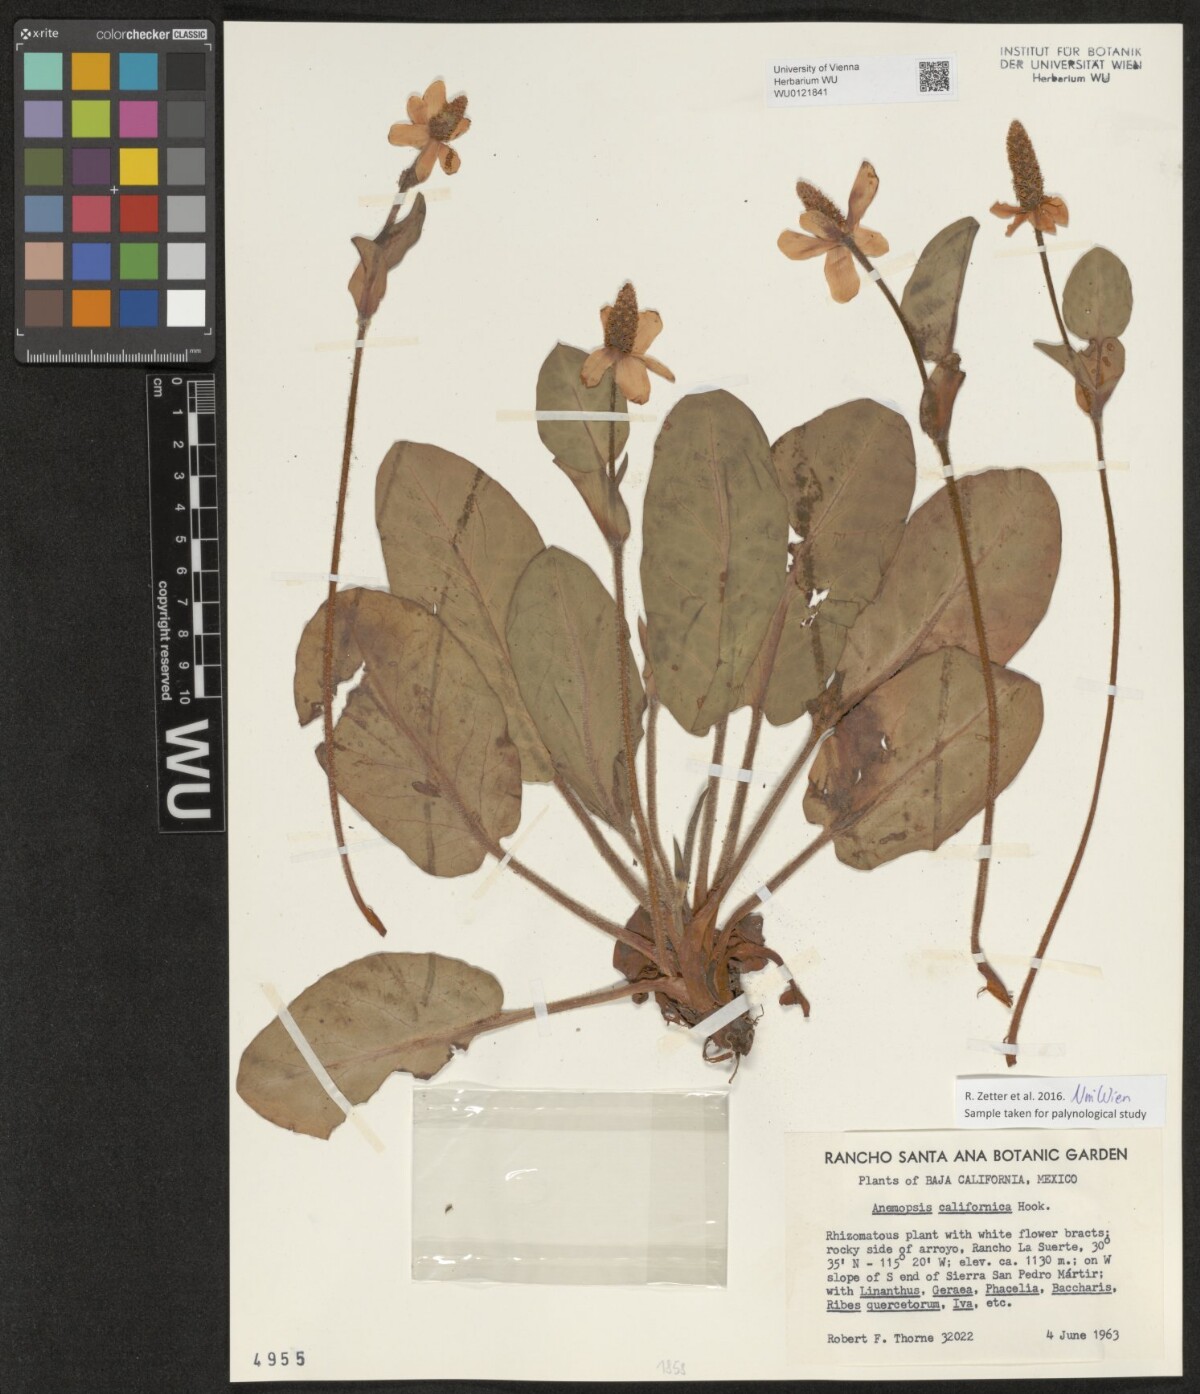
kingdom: Plantae
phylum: Tracheophyta
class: Magnoliopsida
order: Piperales
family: Saururaceae
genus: Anemopsis
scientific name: Anemopsis californica
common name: Apache-beads
